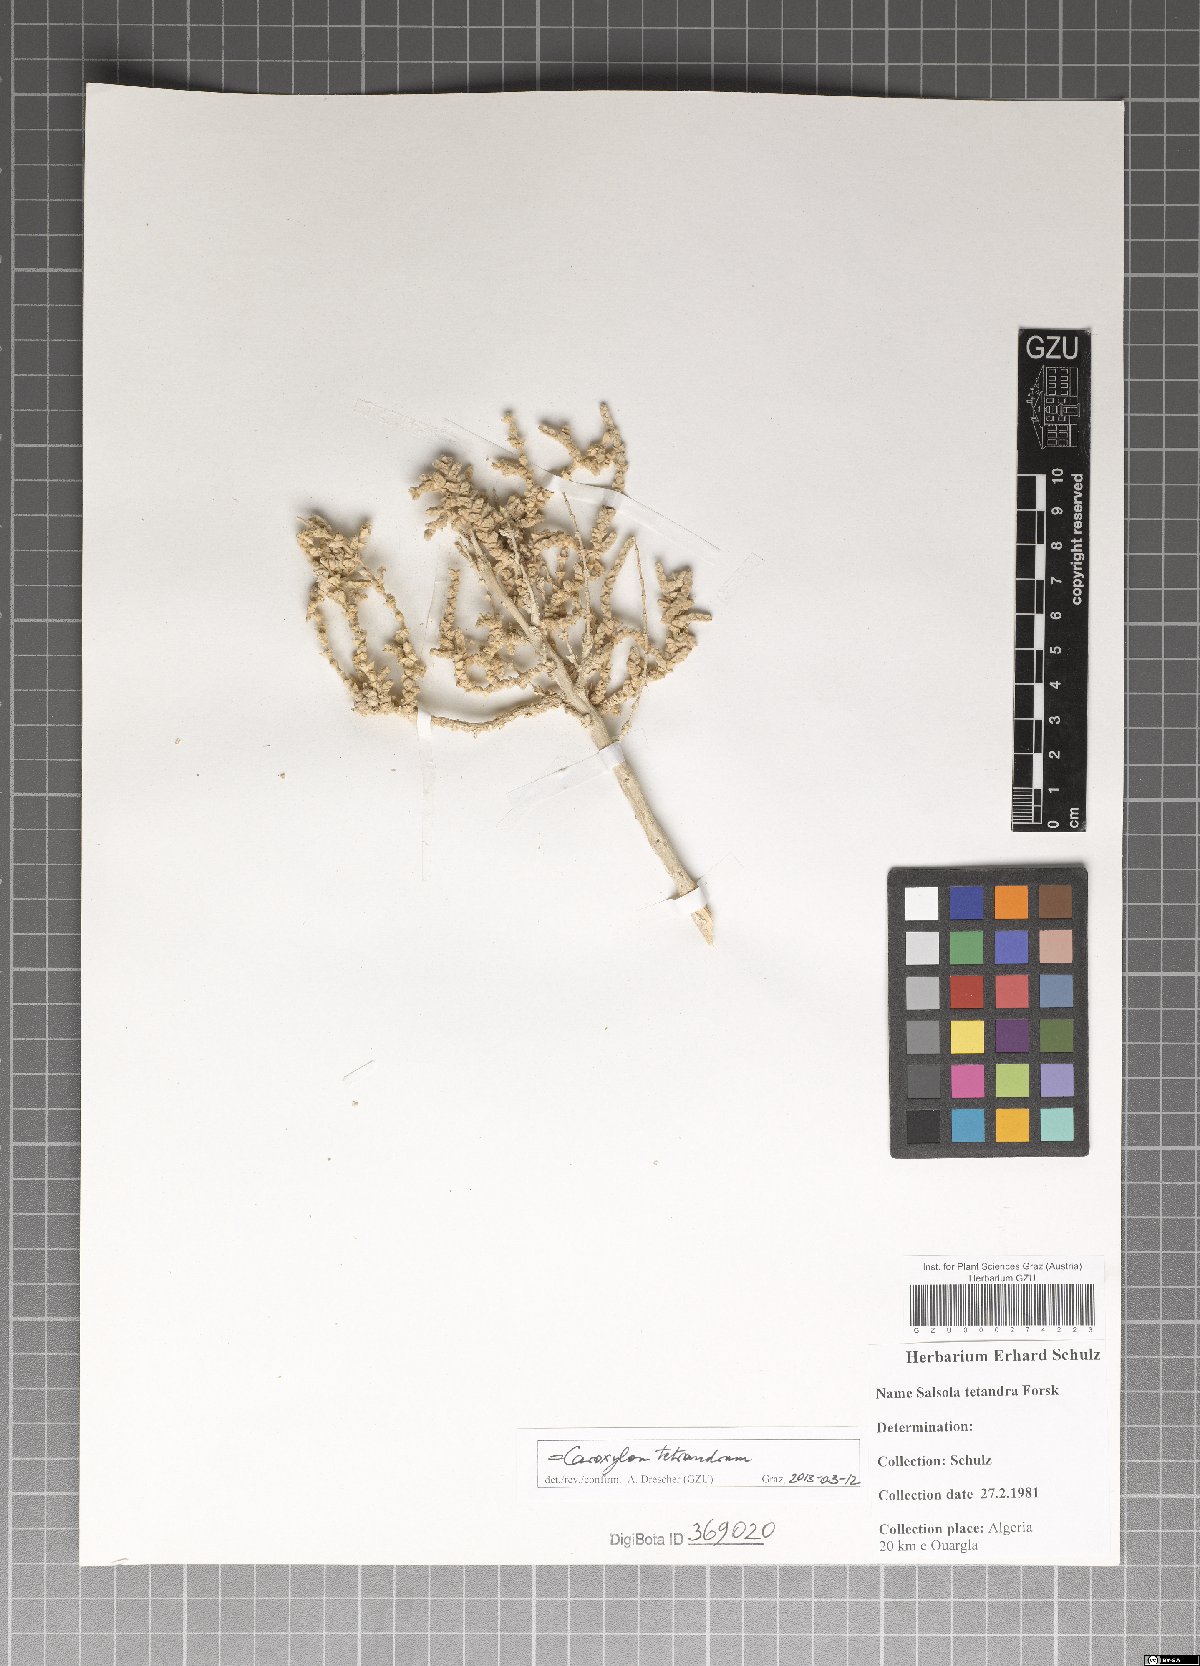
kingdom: Plantae
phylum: Tracheophyta
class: Magnoliopsida
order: Caryophyllales
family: Amaranthaceae
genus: Caroxylon
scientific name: Caroxylon tetrandrum
